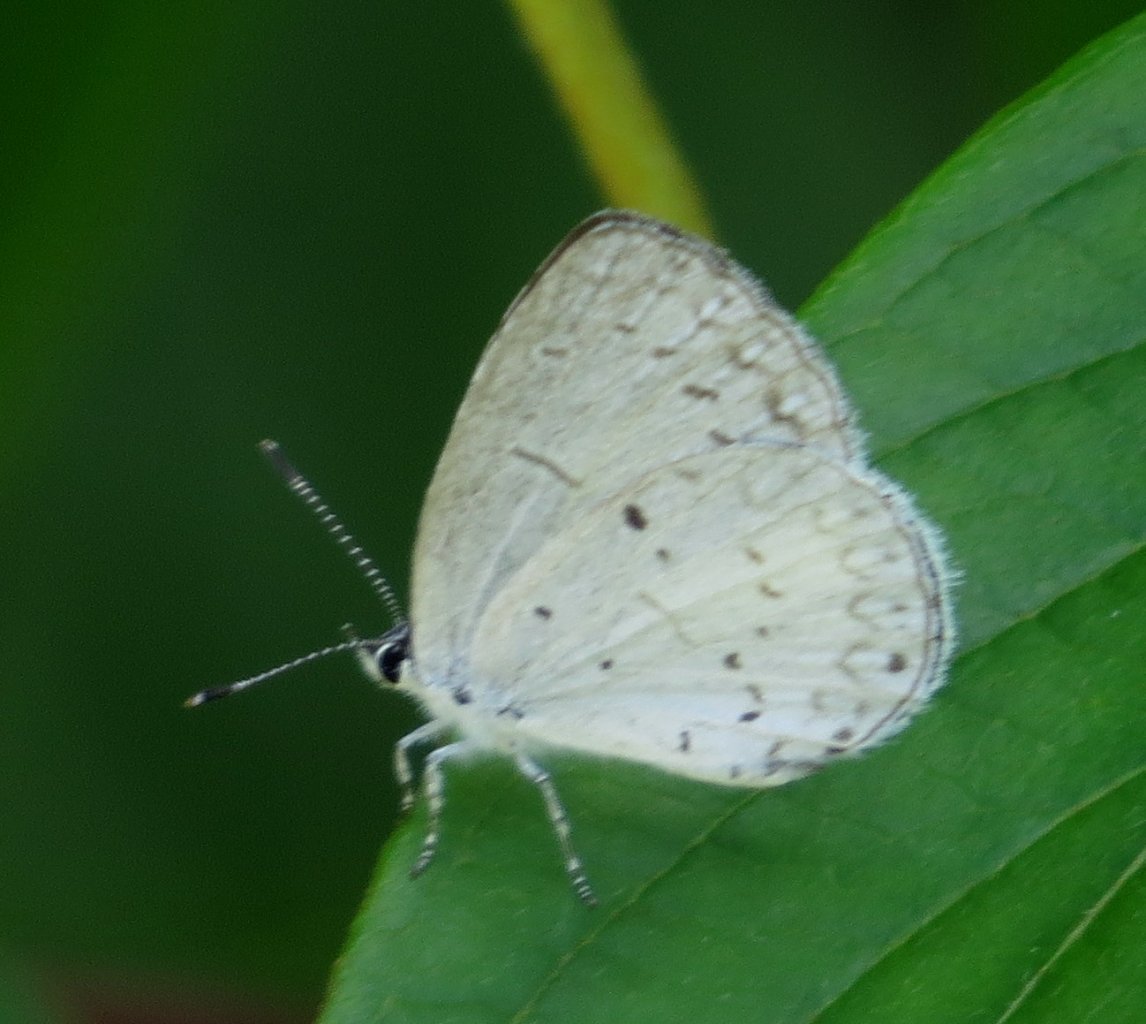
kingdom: Animalia
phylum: Arthropoda
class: Insecta
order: Lepidoptera
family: Lycaenidae
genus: Celastrina
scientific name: Celastrina
